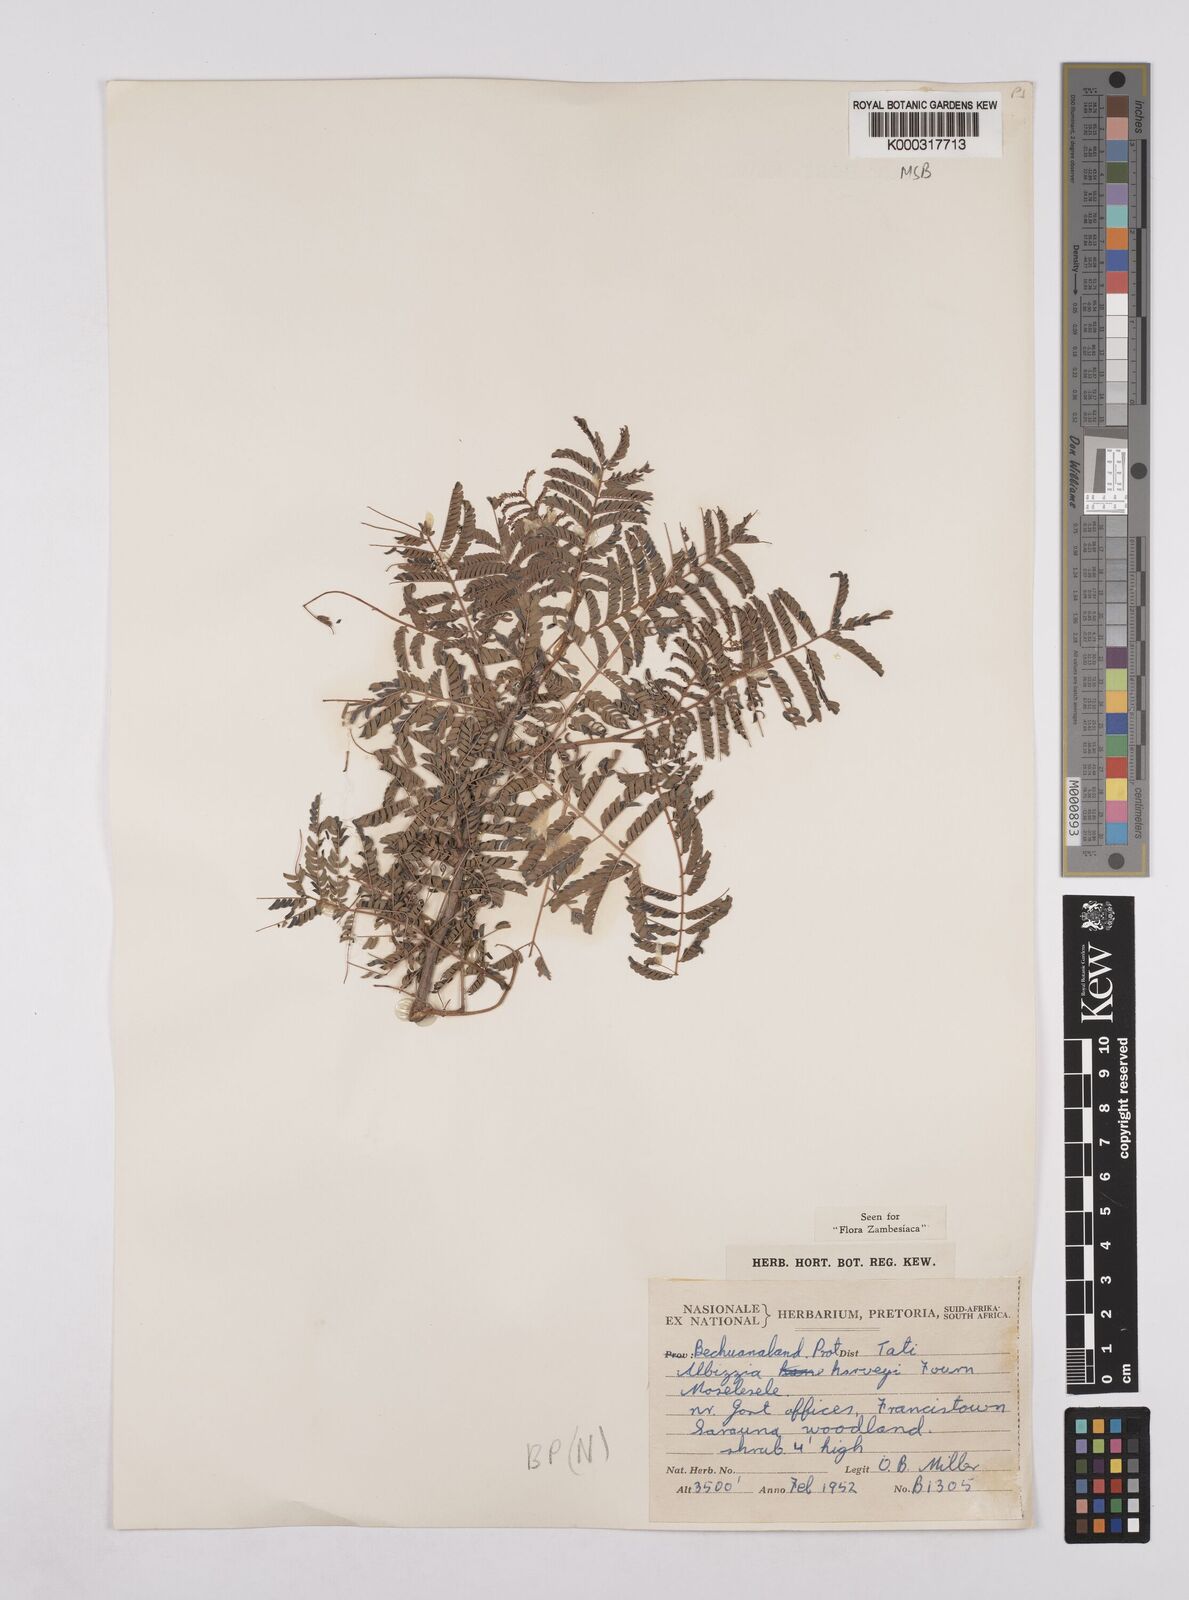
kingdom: Plantae
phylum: Tracheophyta
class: Magnoliopsida
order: Fabales
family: Fabaceae
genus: Albizia
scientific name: Albizia harveyi
